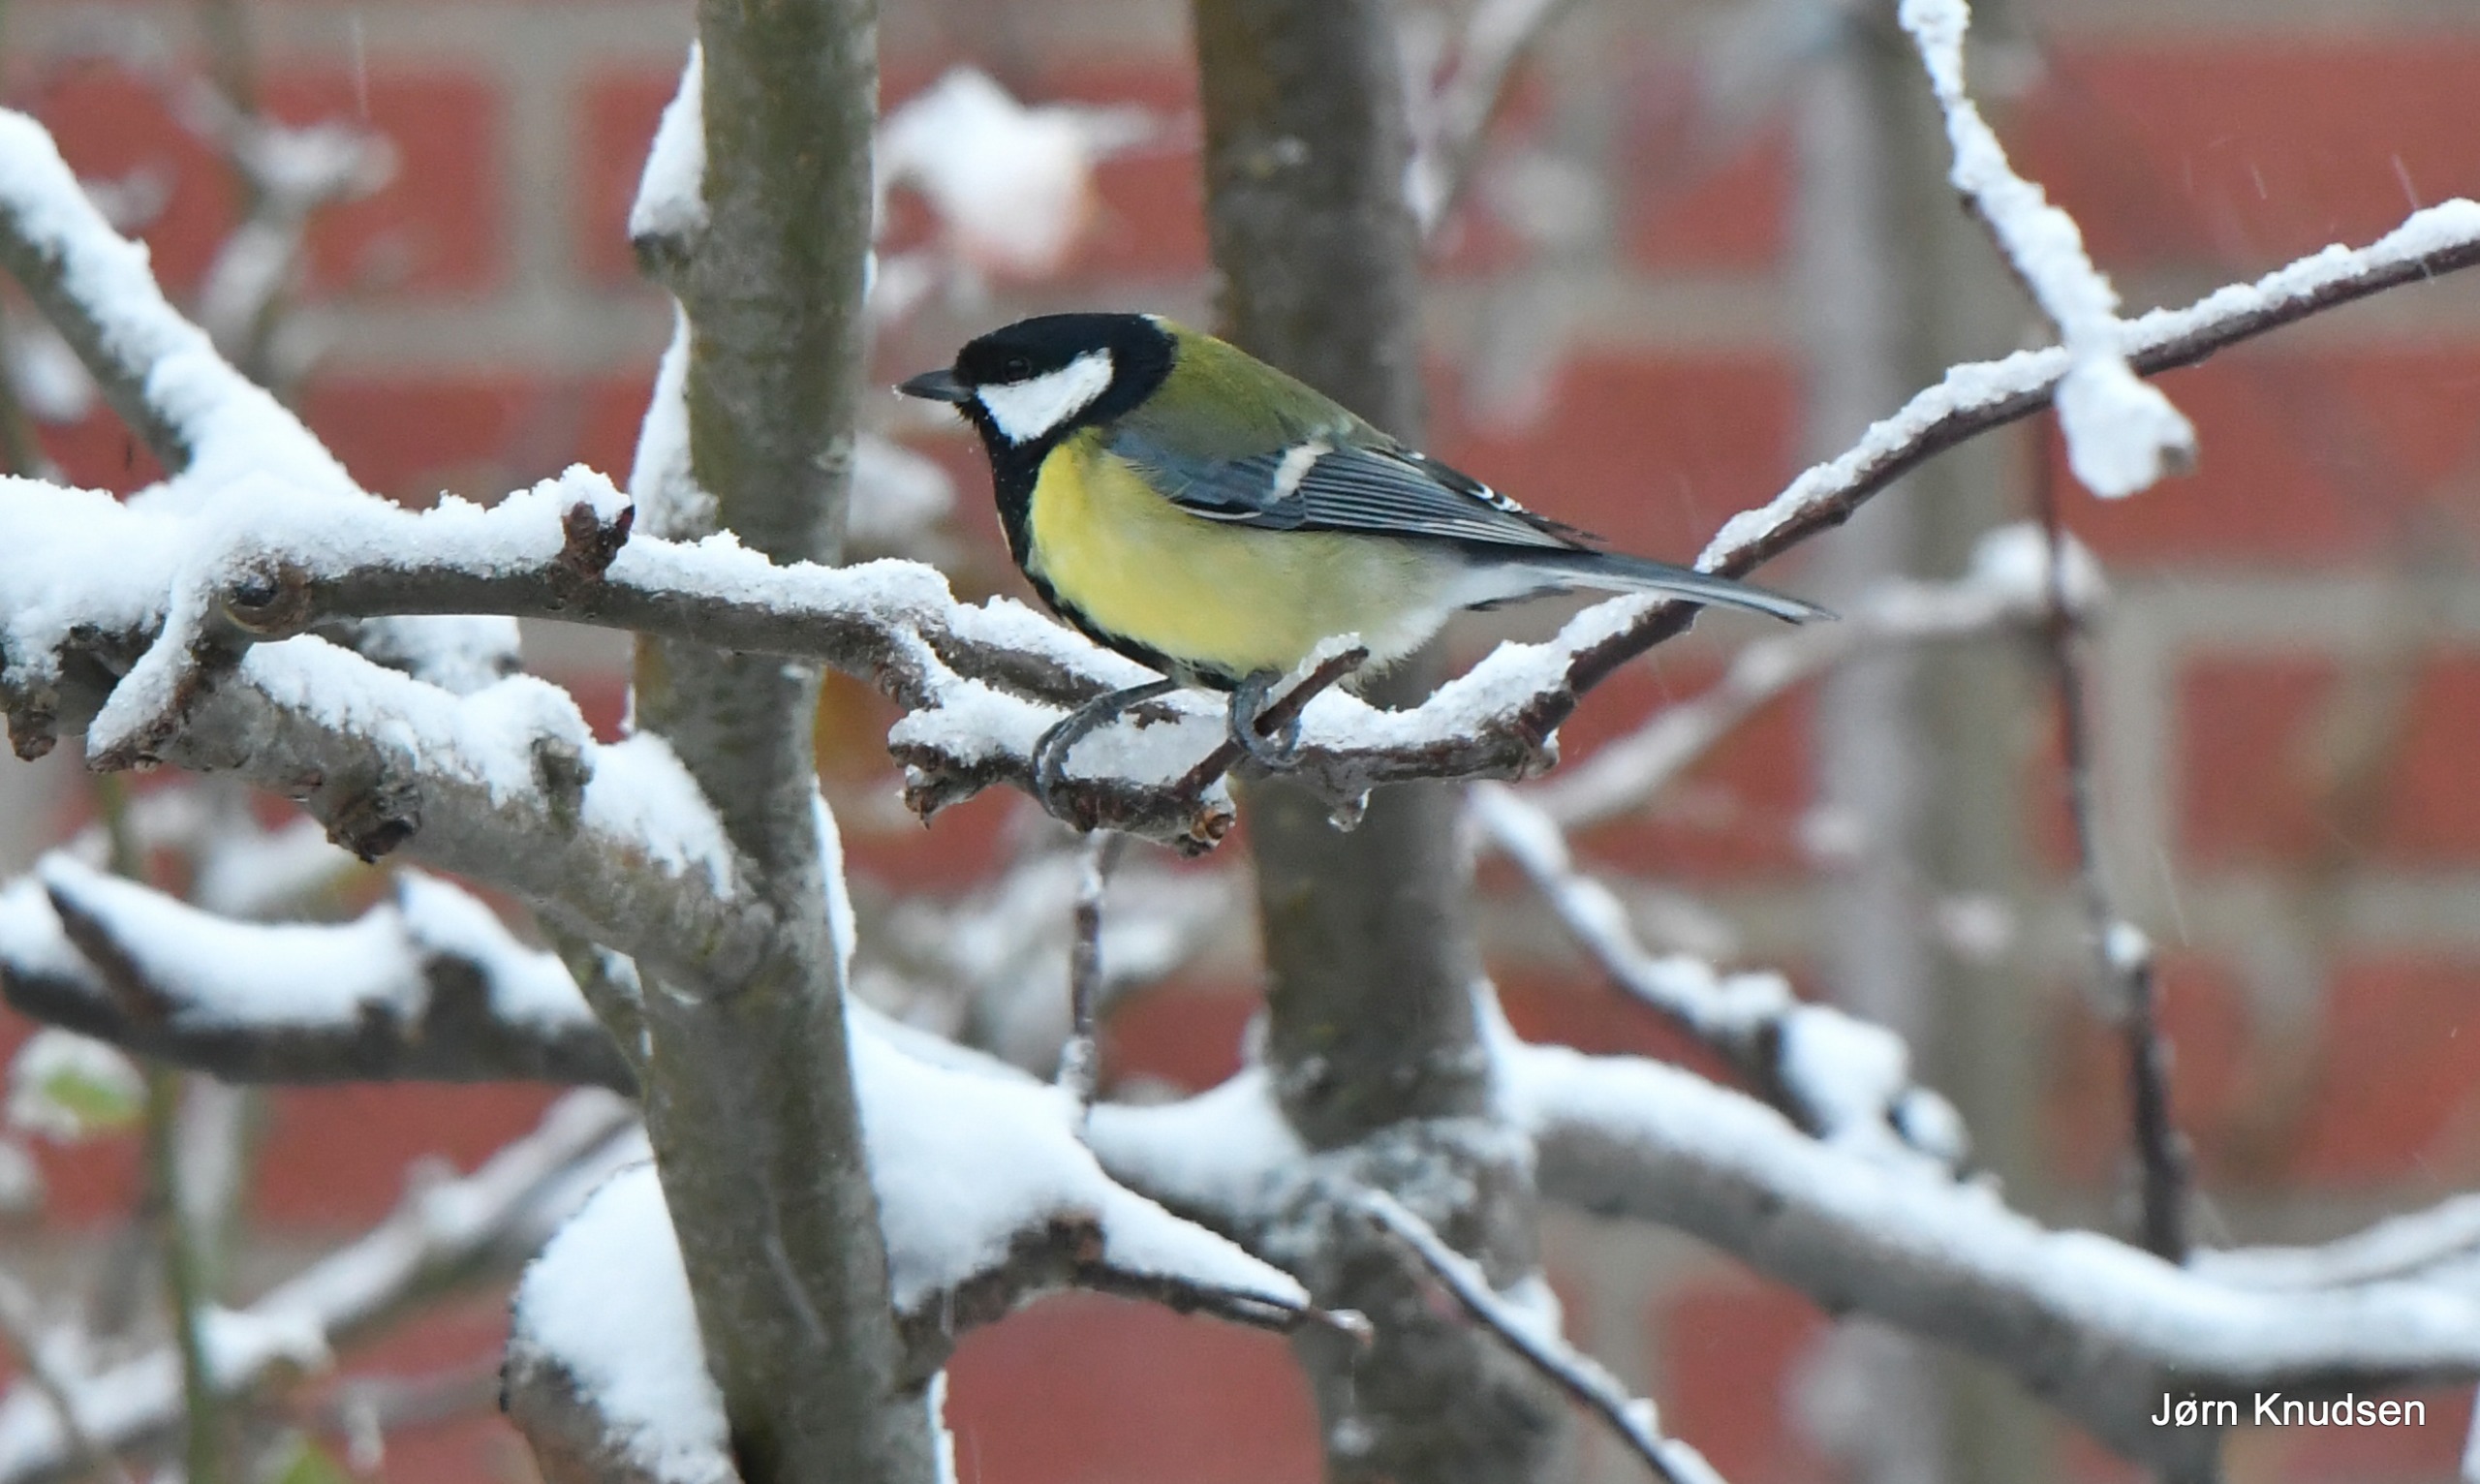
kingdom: Animalia
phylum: Chordata
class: Aves
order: Passeriformes
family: Paridae
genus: Parus
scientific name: Parus major
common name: Musvit
